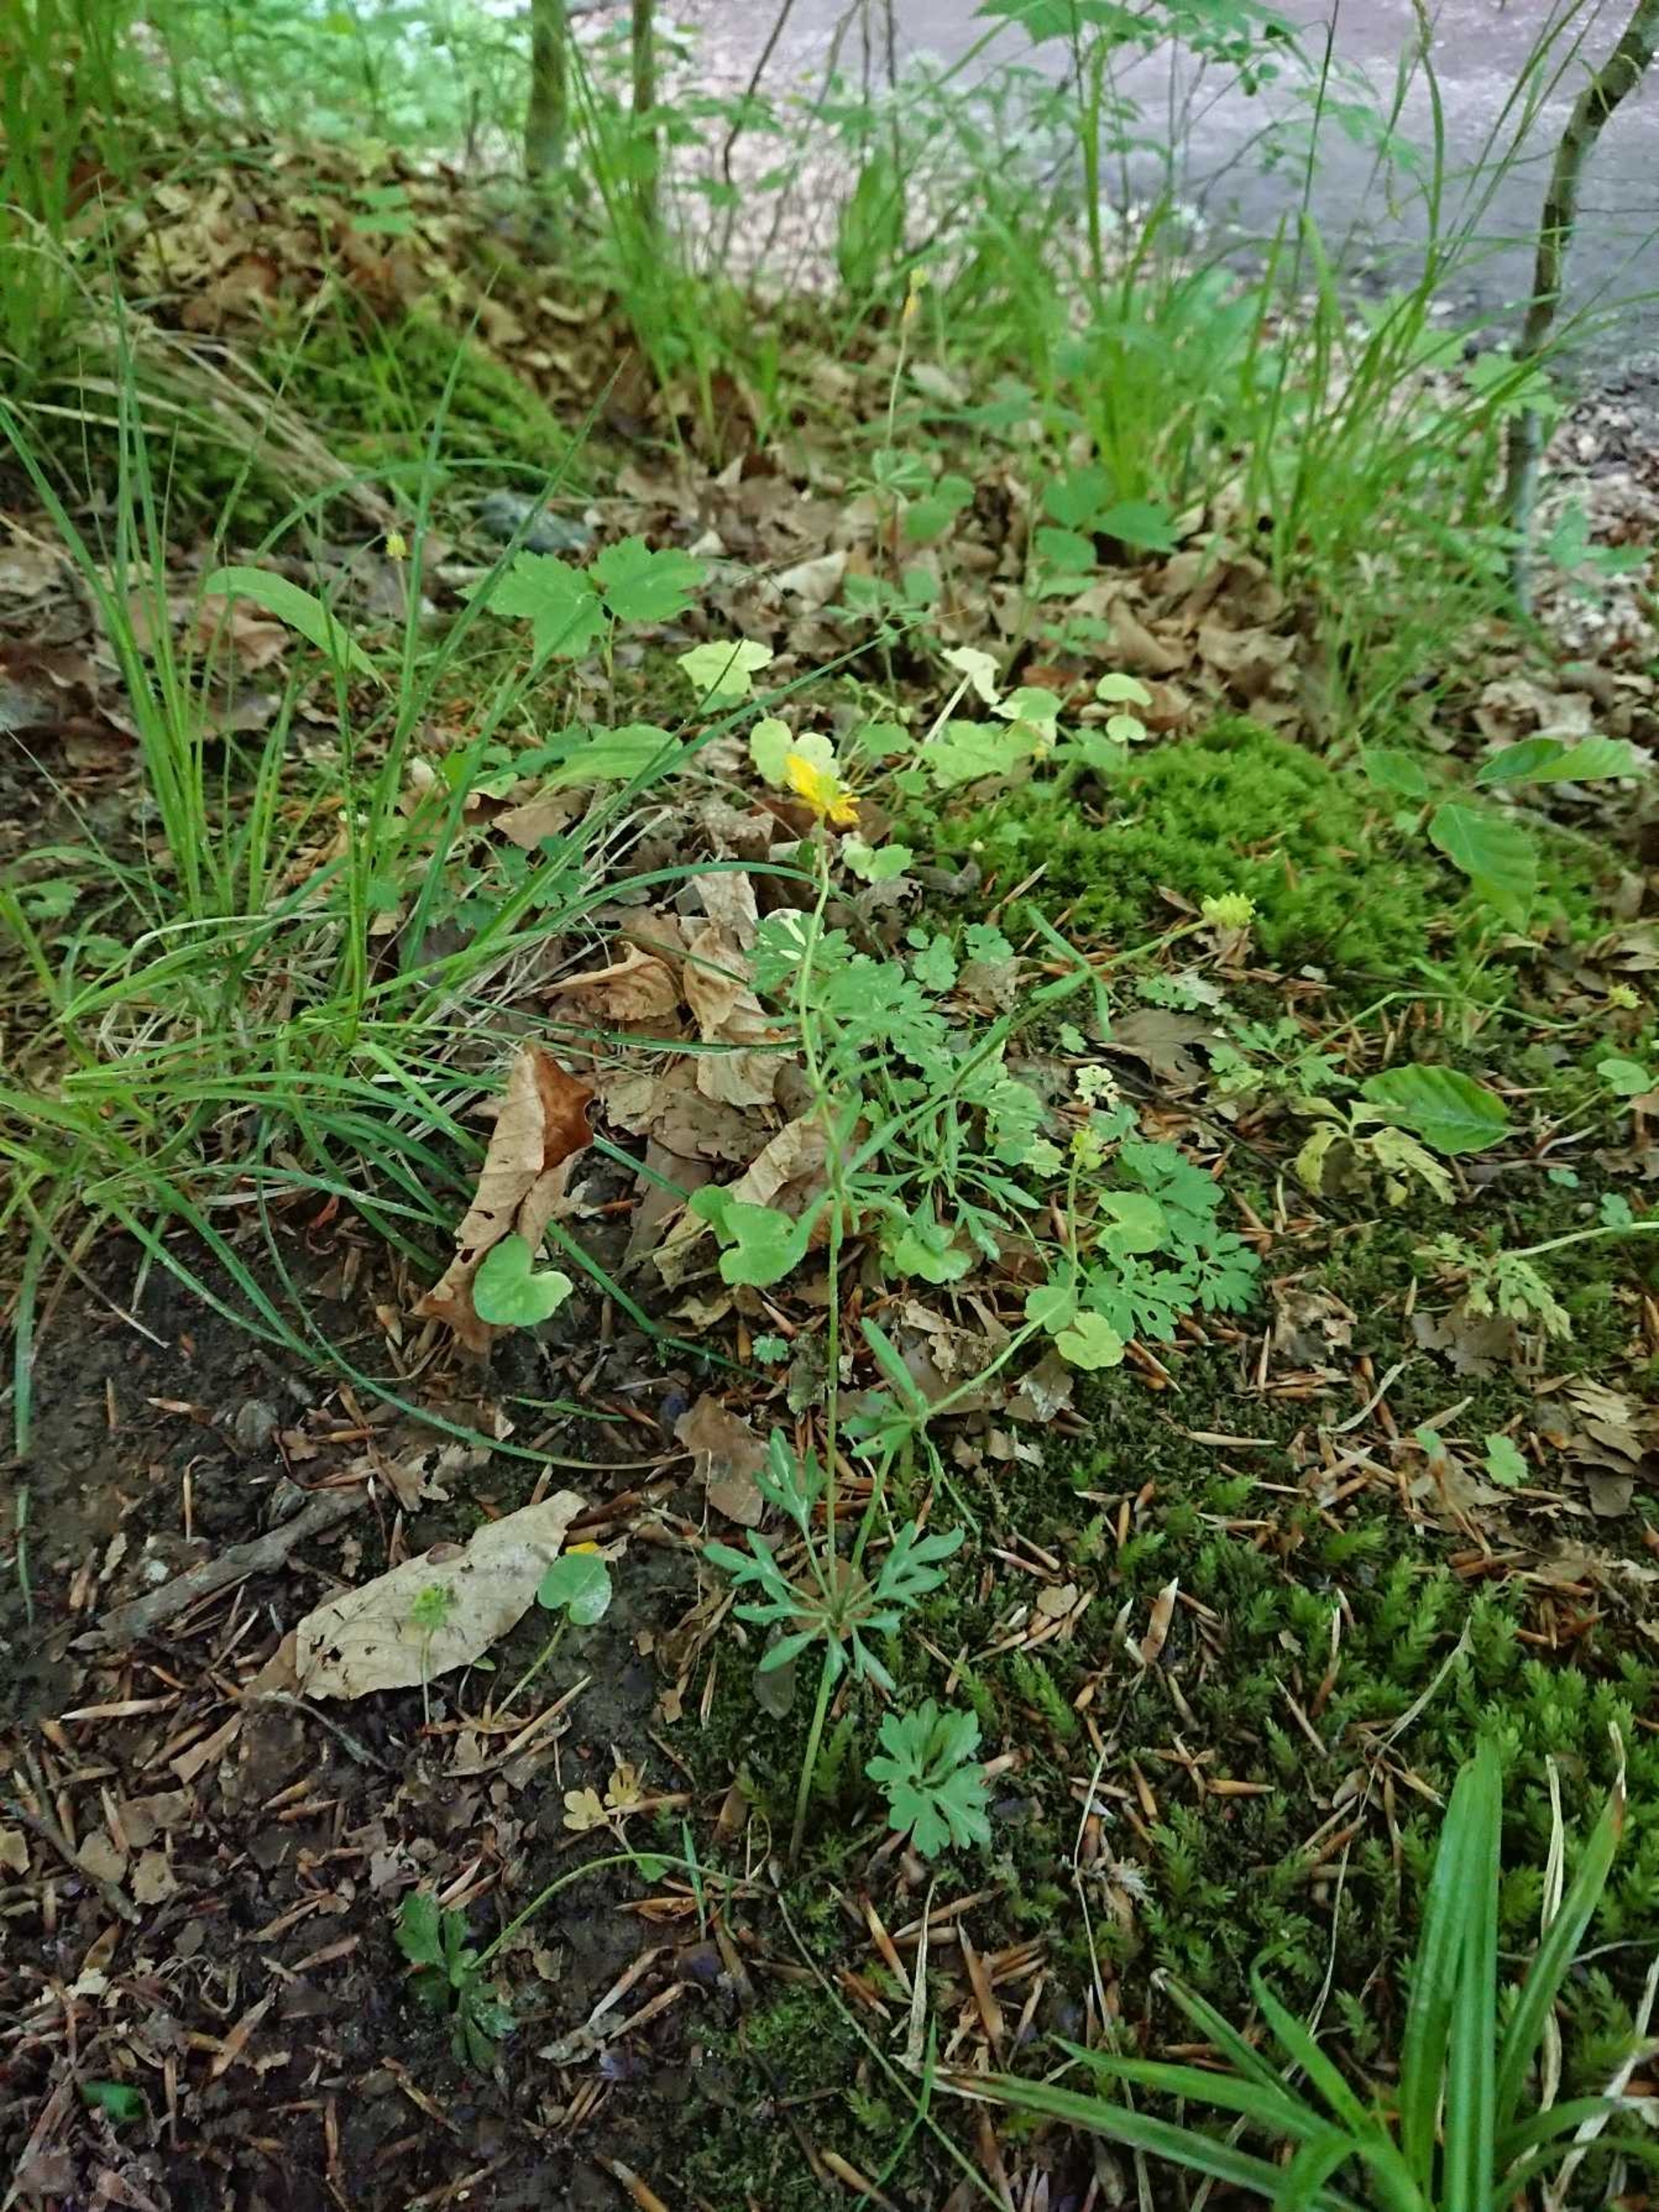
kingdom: Plantae
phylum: Tracheophyta
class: Magnoliopsida
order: Ranunculales
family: Ranunculaceae
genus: Ranunculus
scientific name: Ranunculus auricomus
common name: Nyrebladet ranunkel
